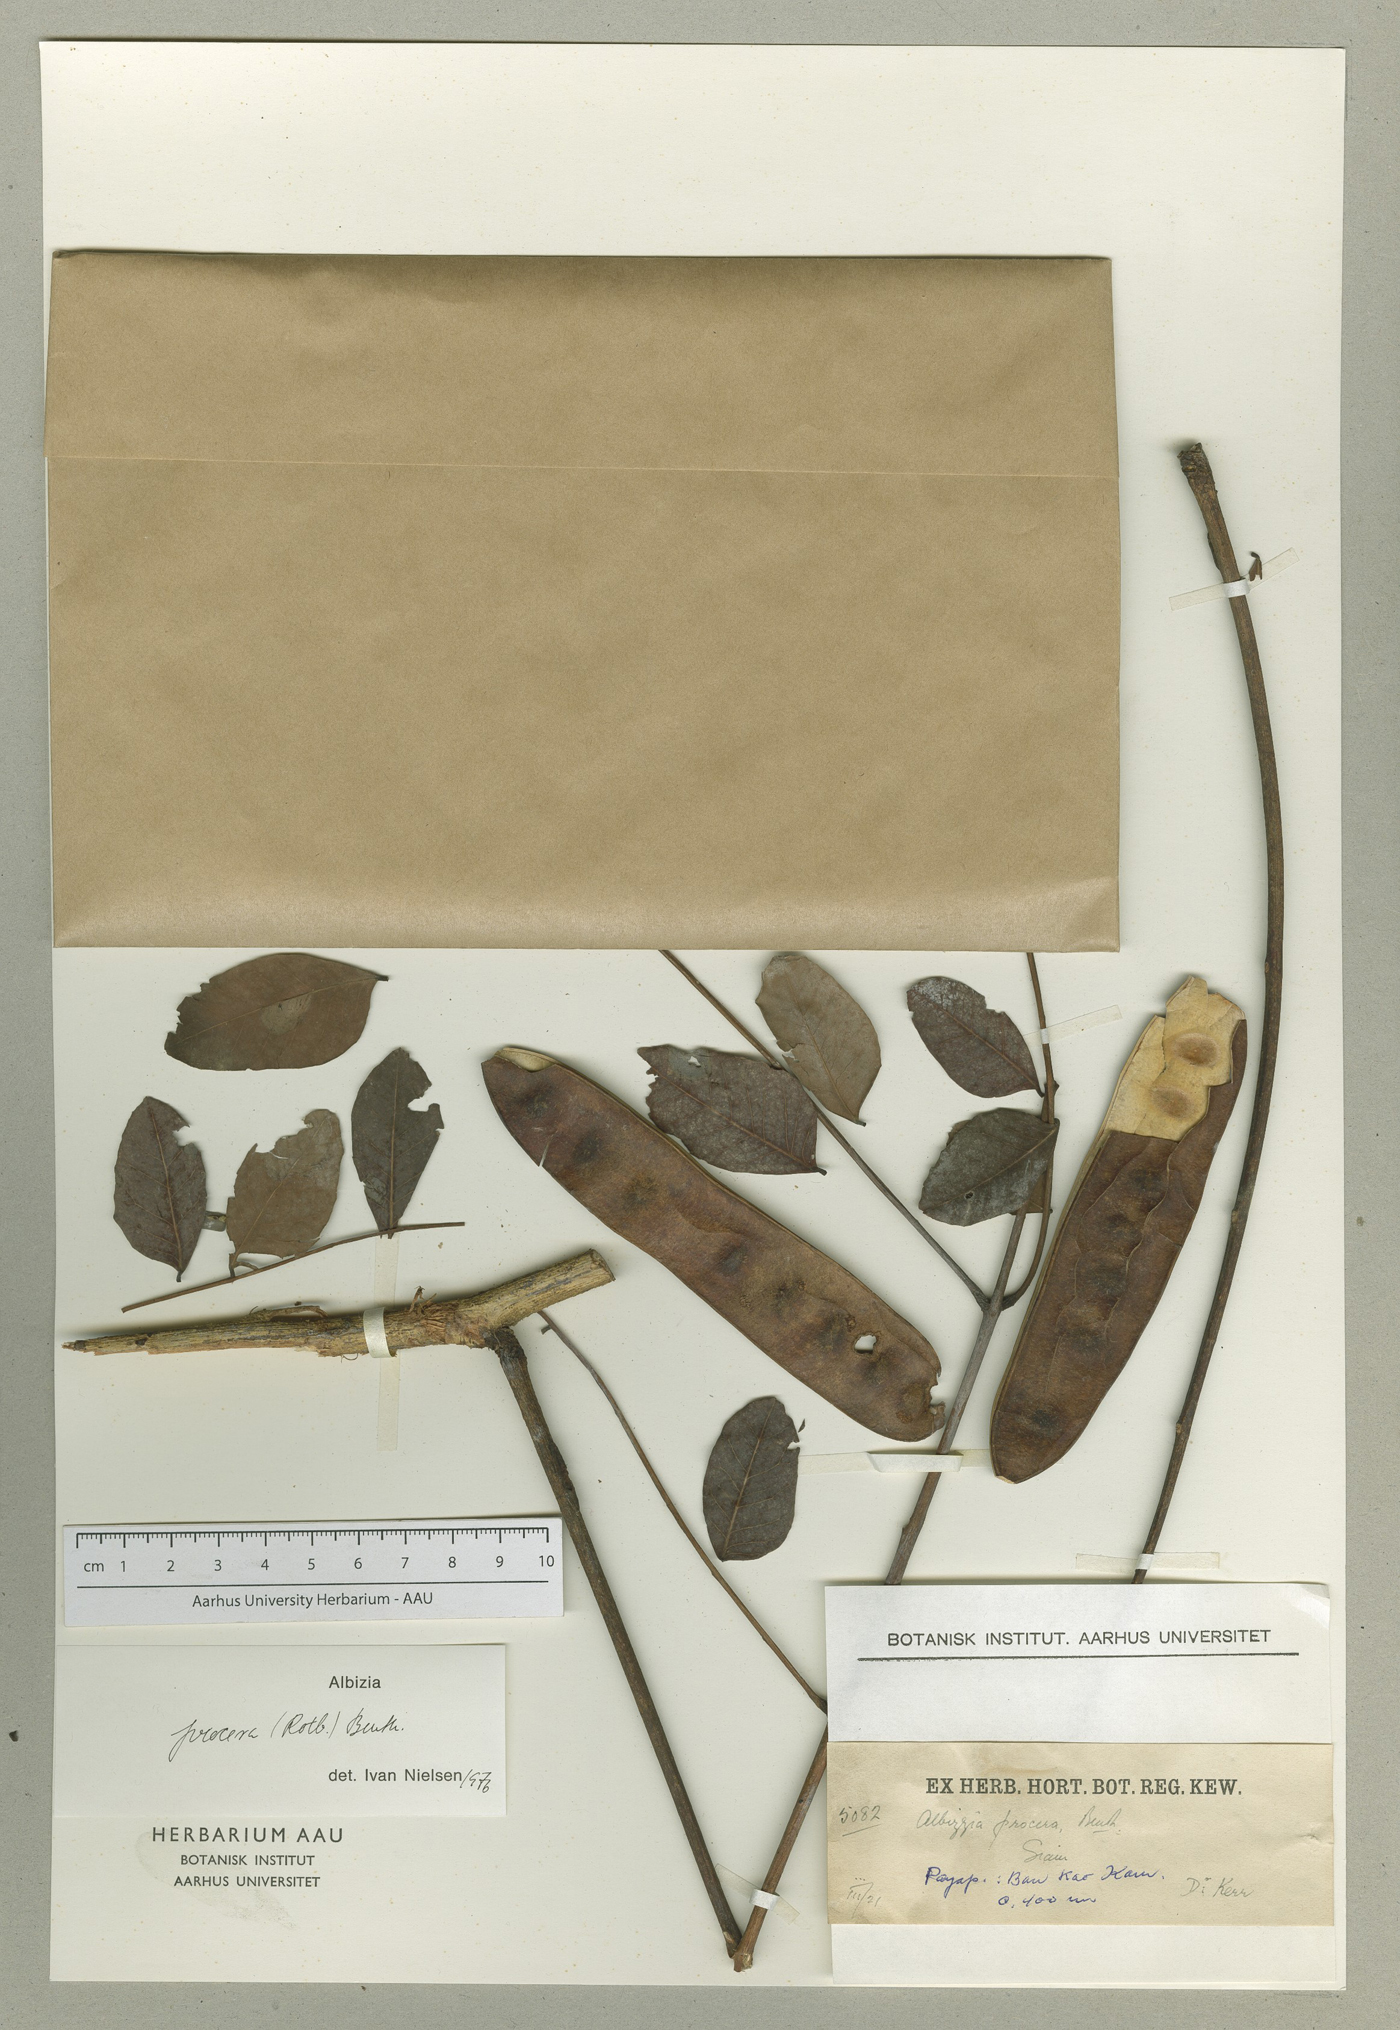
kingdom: Plantae
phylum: Tracheophyta
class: Magnoliopsida
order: Fabales
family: Fabaceae
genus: Albizia
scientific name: Albizia procera
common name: Tall albizia
